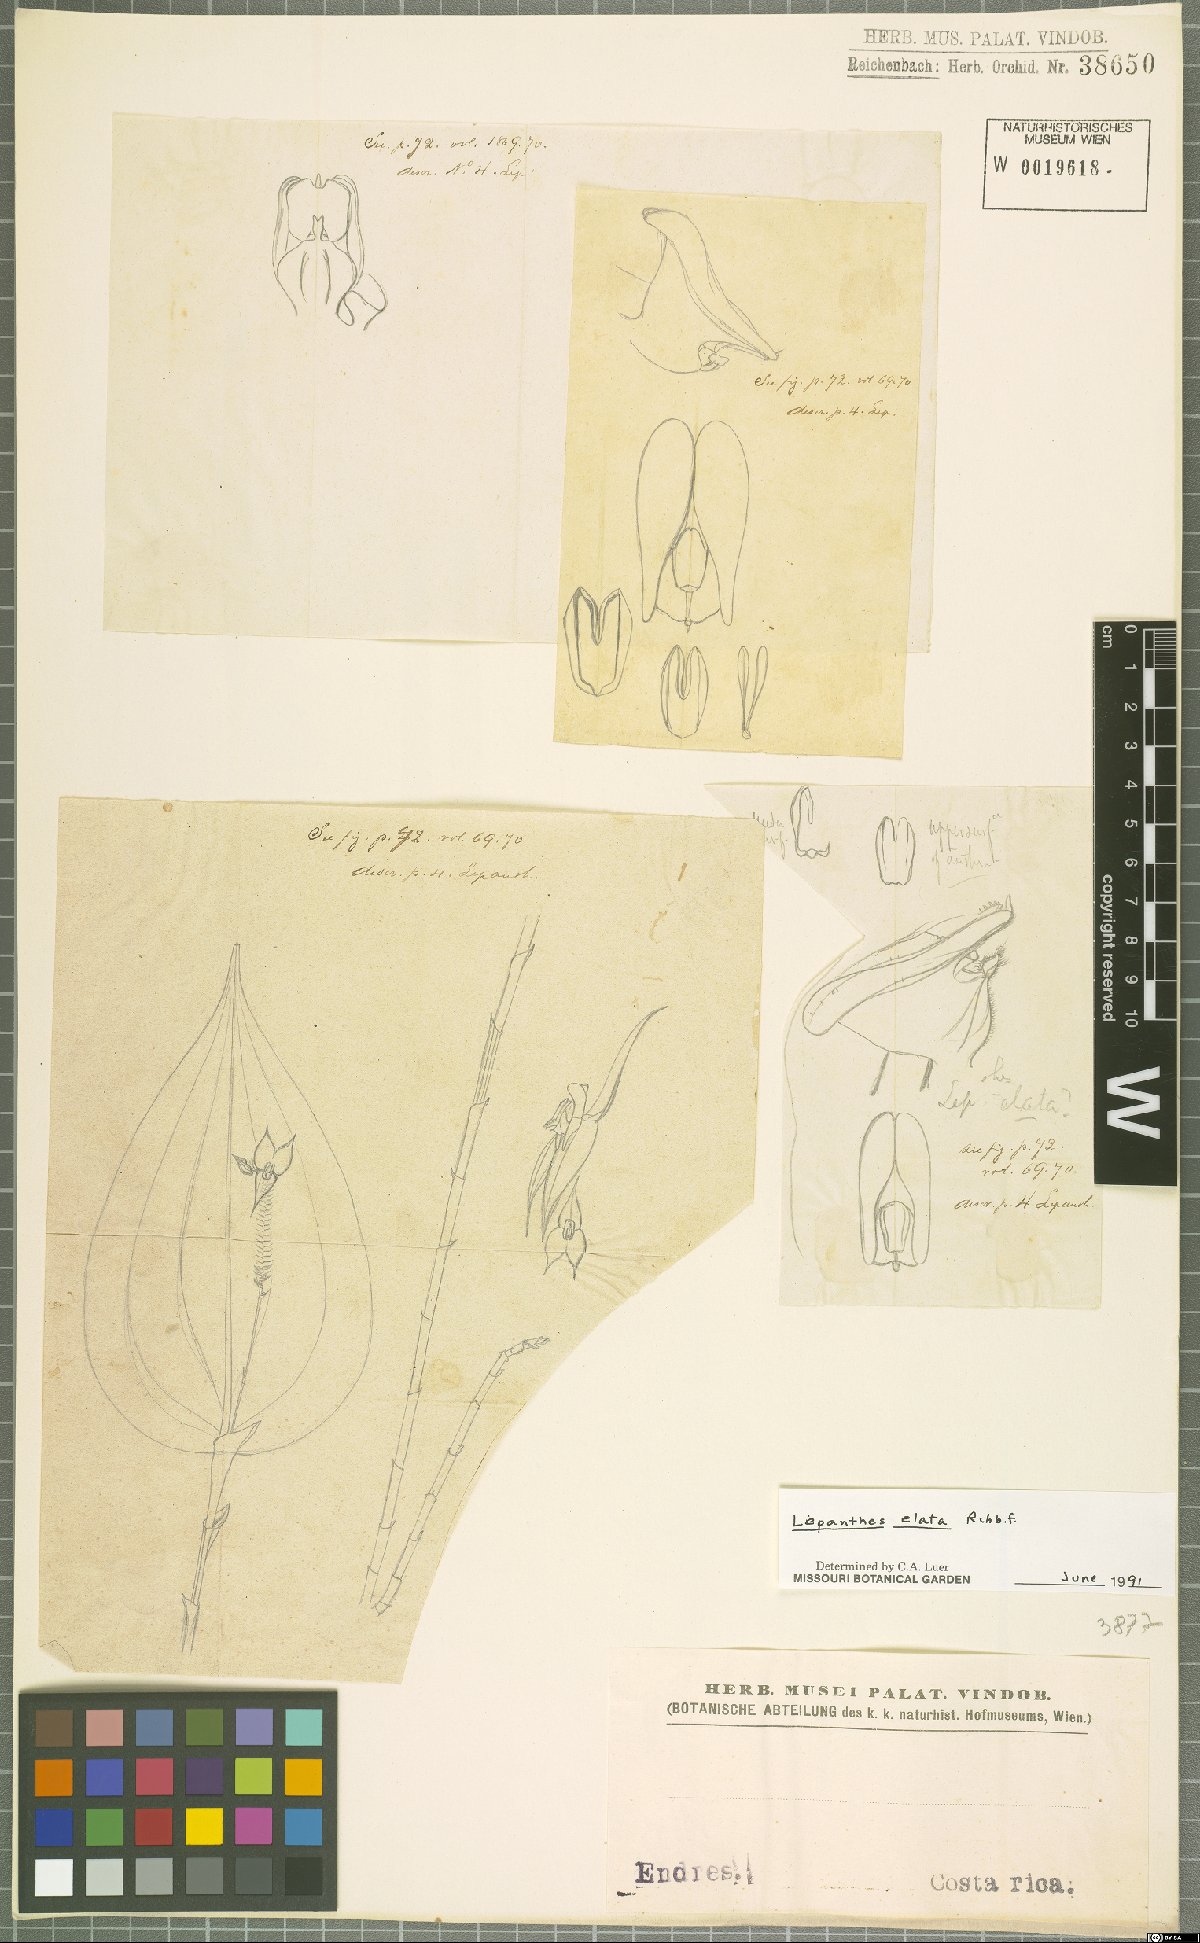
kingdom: Plantae
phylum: Tracheophyta
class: Liliopsida
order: Asparagales
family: Orchidaceae
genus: Lepanthes
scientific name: Lepanthes elata
